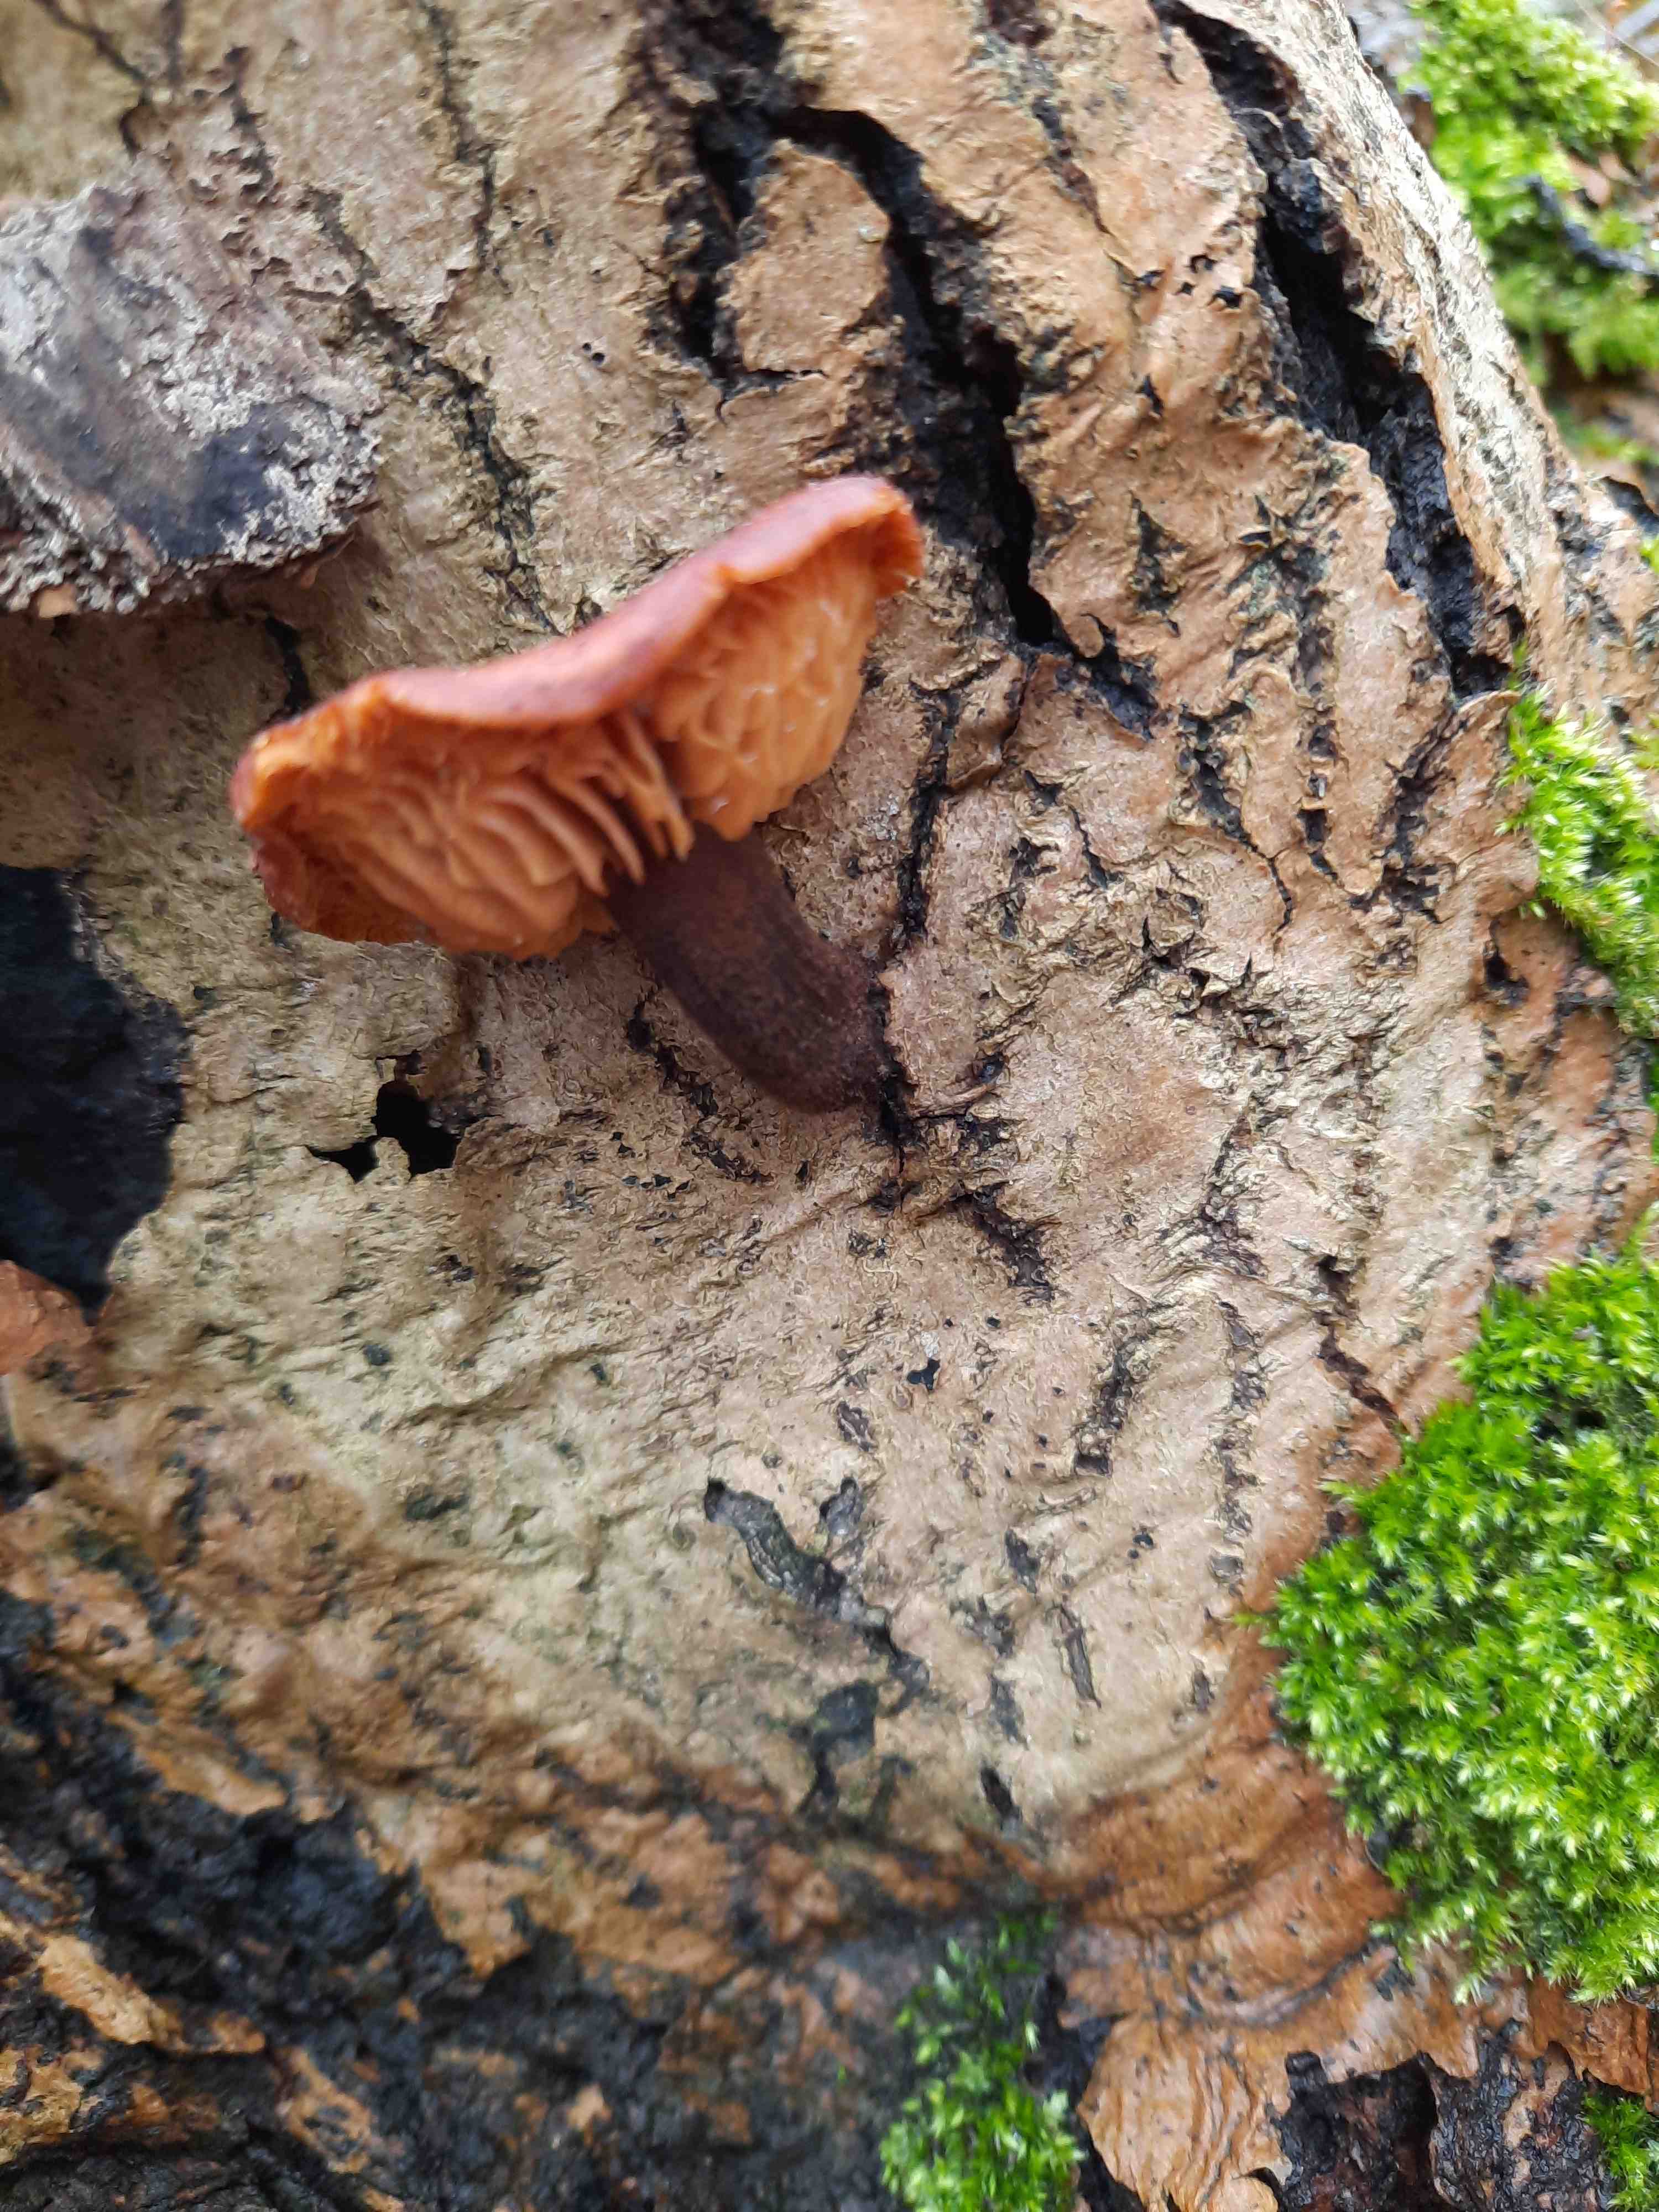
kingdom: Fungi
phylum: Basidiomycota
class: Agaricomycetes
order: Agaricales
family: Physalacriaceae
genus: Flammulina
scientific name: Flammulina
